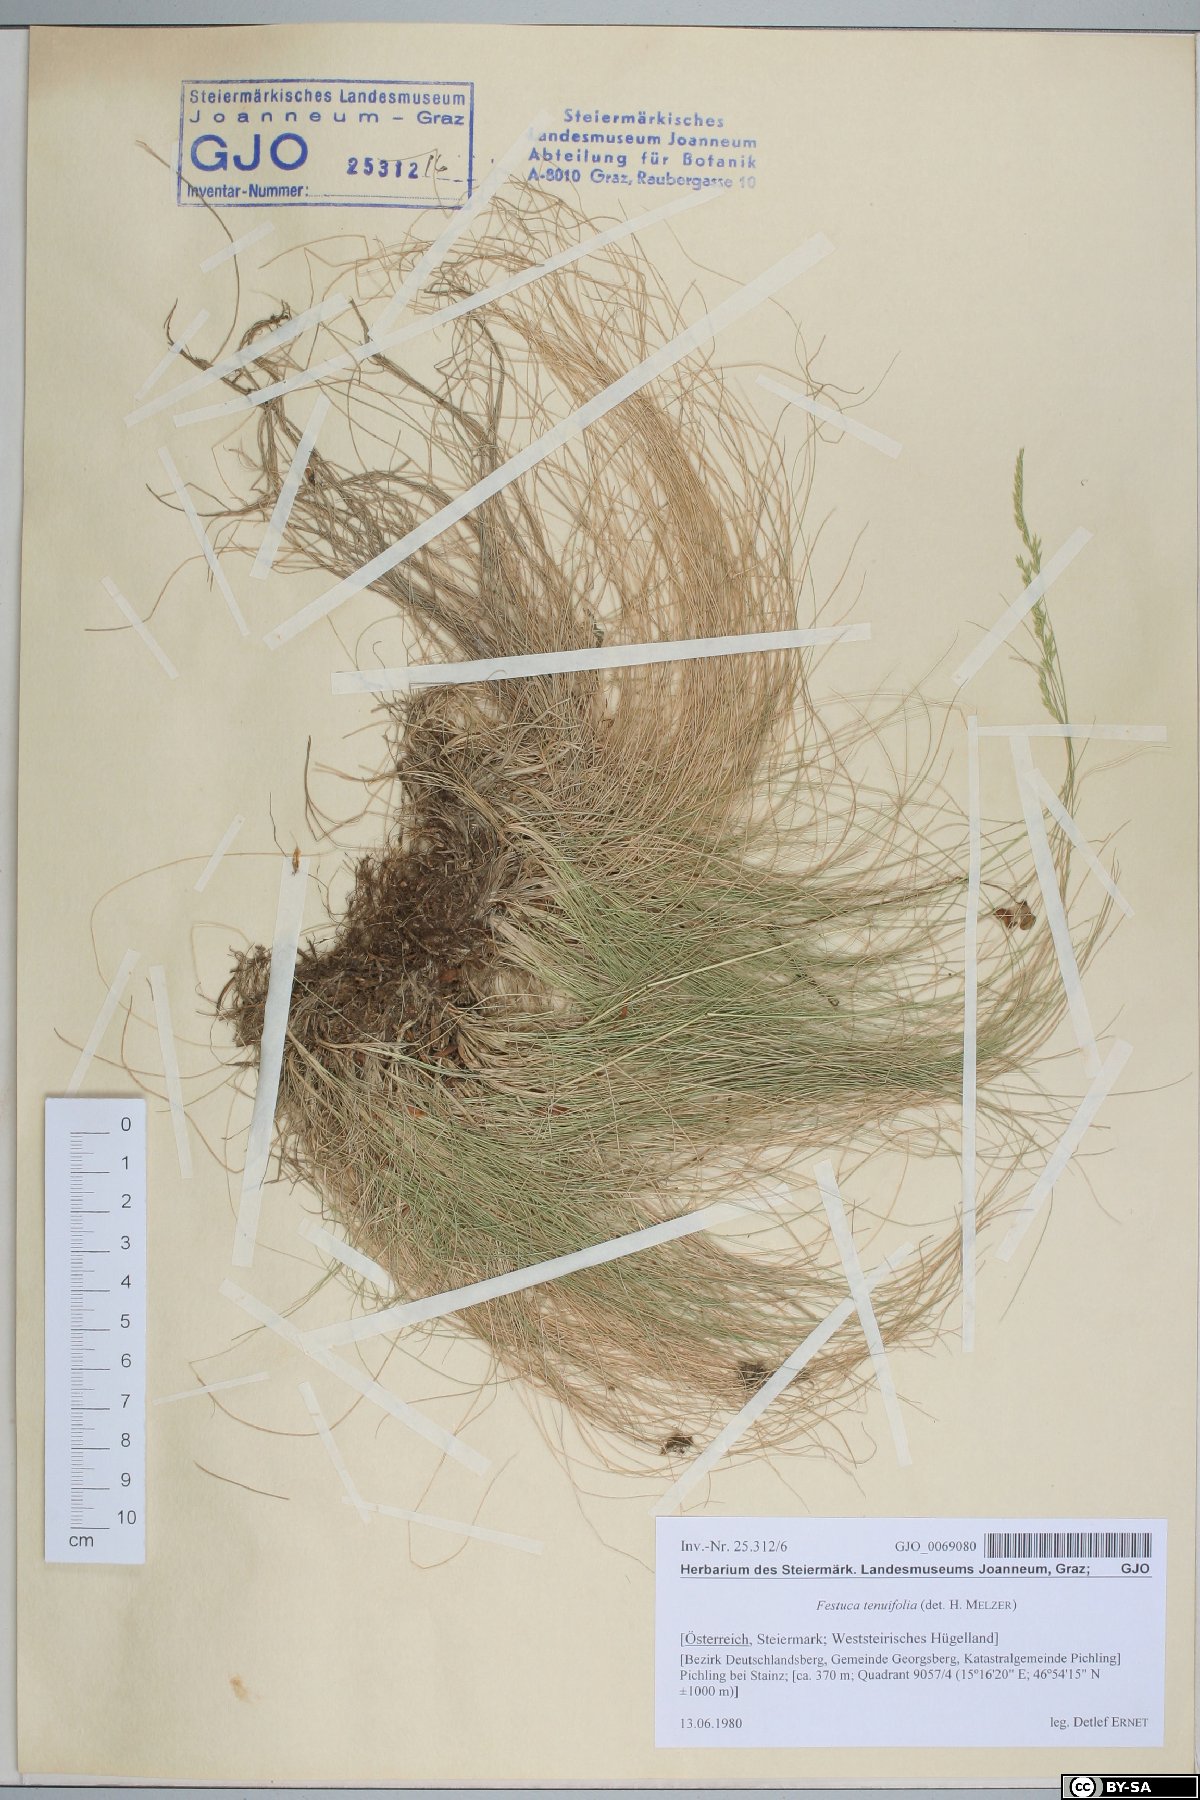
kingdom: Plantae
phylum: Tracheophyta
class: Liliopsida
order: Poales
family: Poaceae
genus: Festuca
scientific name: Festuca filiformis
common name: Fine-leaved sheep's-fescue
